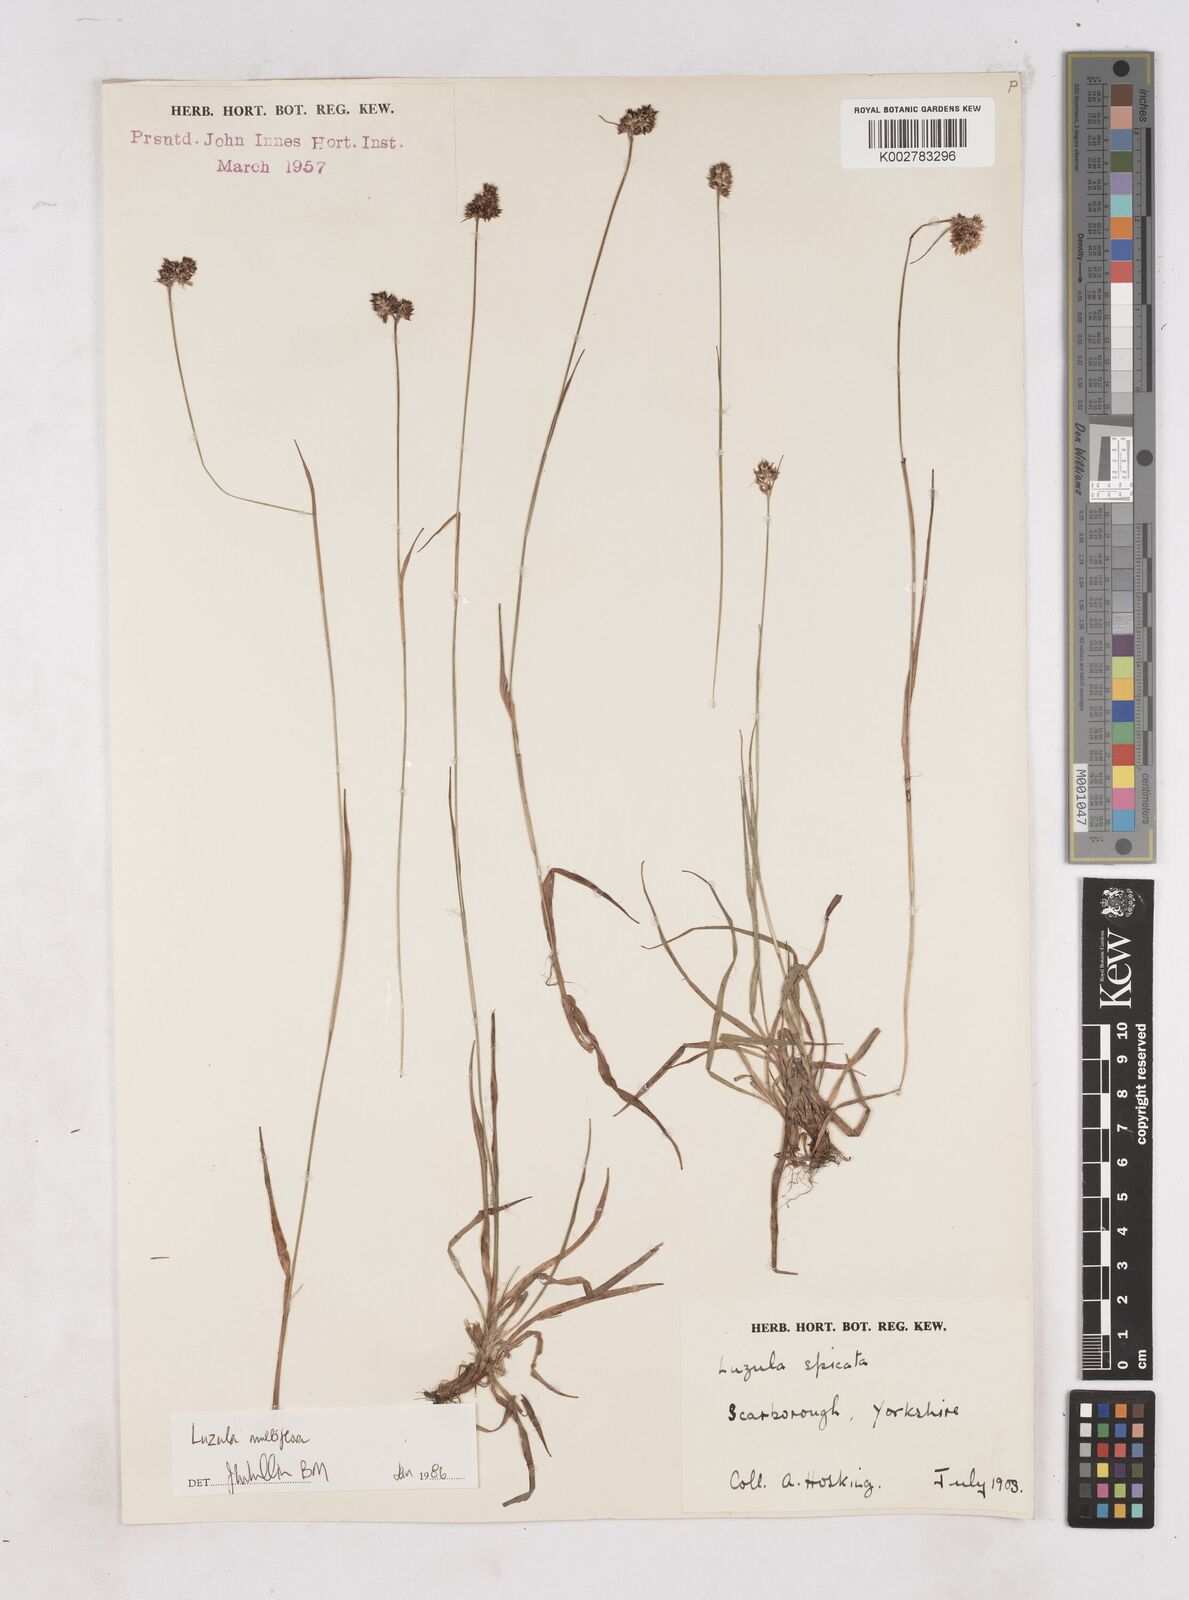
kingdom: Plantae
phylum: Tracheophyta
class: Liliopsida
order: Poales
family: Juncaceae
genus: Luzula
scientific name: Luzula multiflora
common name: Heath wood-rush
